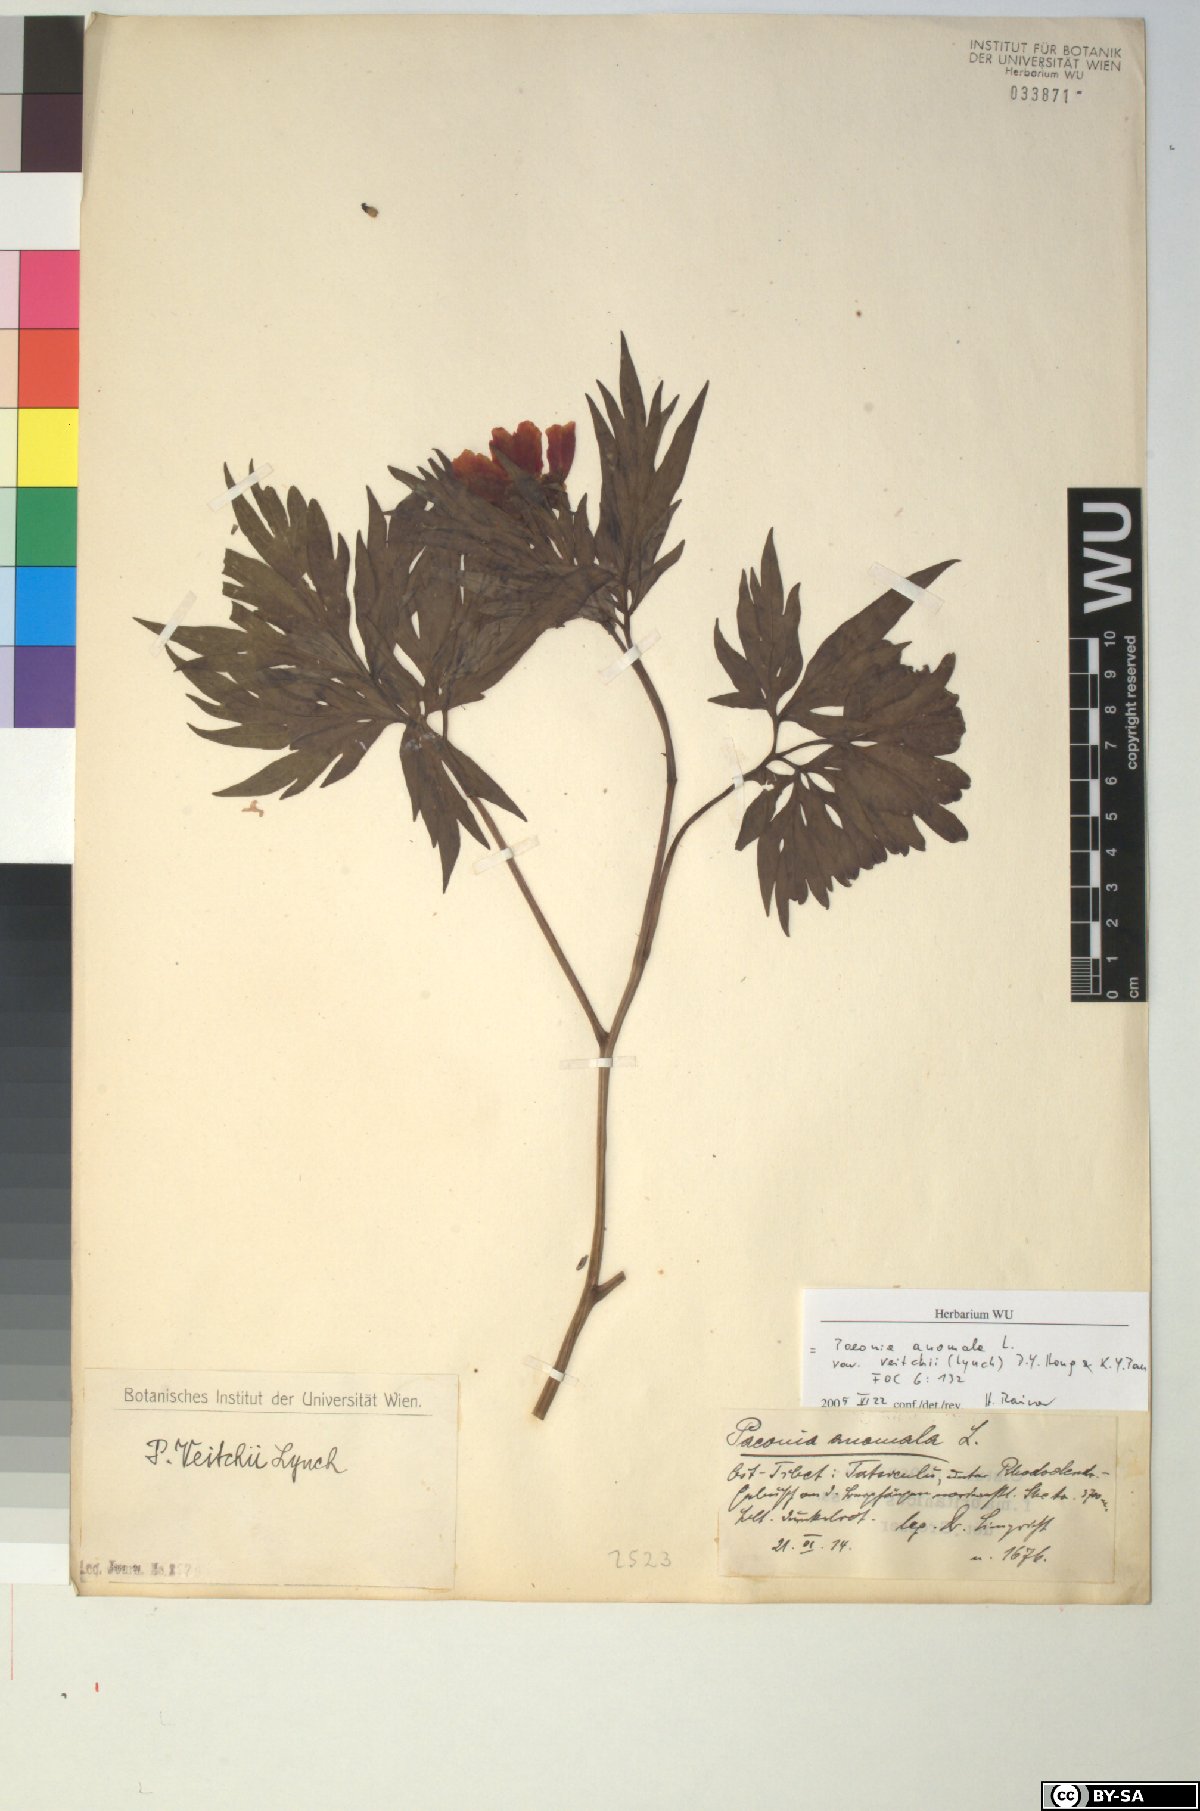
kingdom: Plantae
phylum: Tracheophyta
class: Magnoliopsida
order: Saxifragales
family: Paeoniaceae
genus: Paeonia
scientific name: Paeonia anomala
